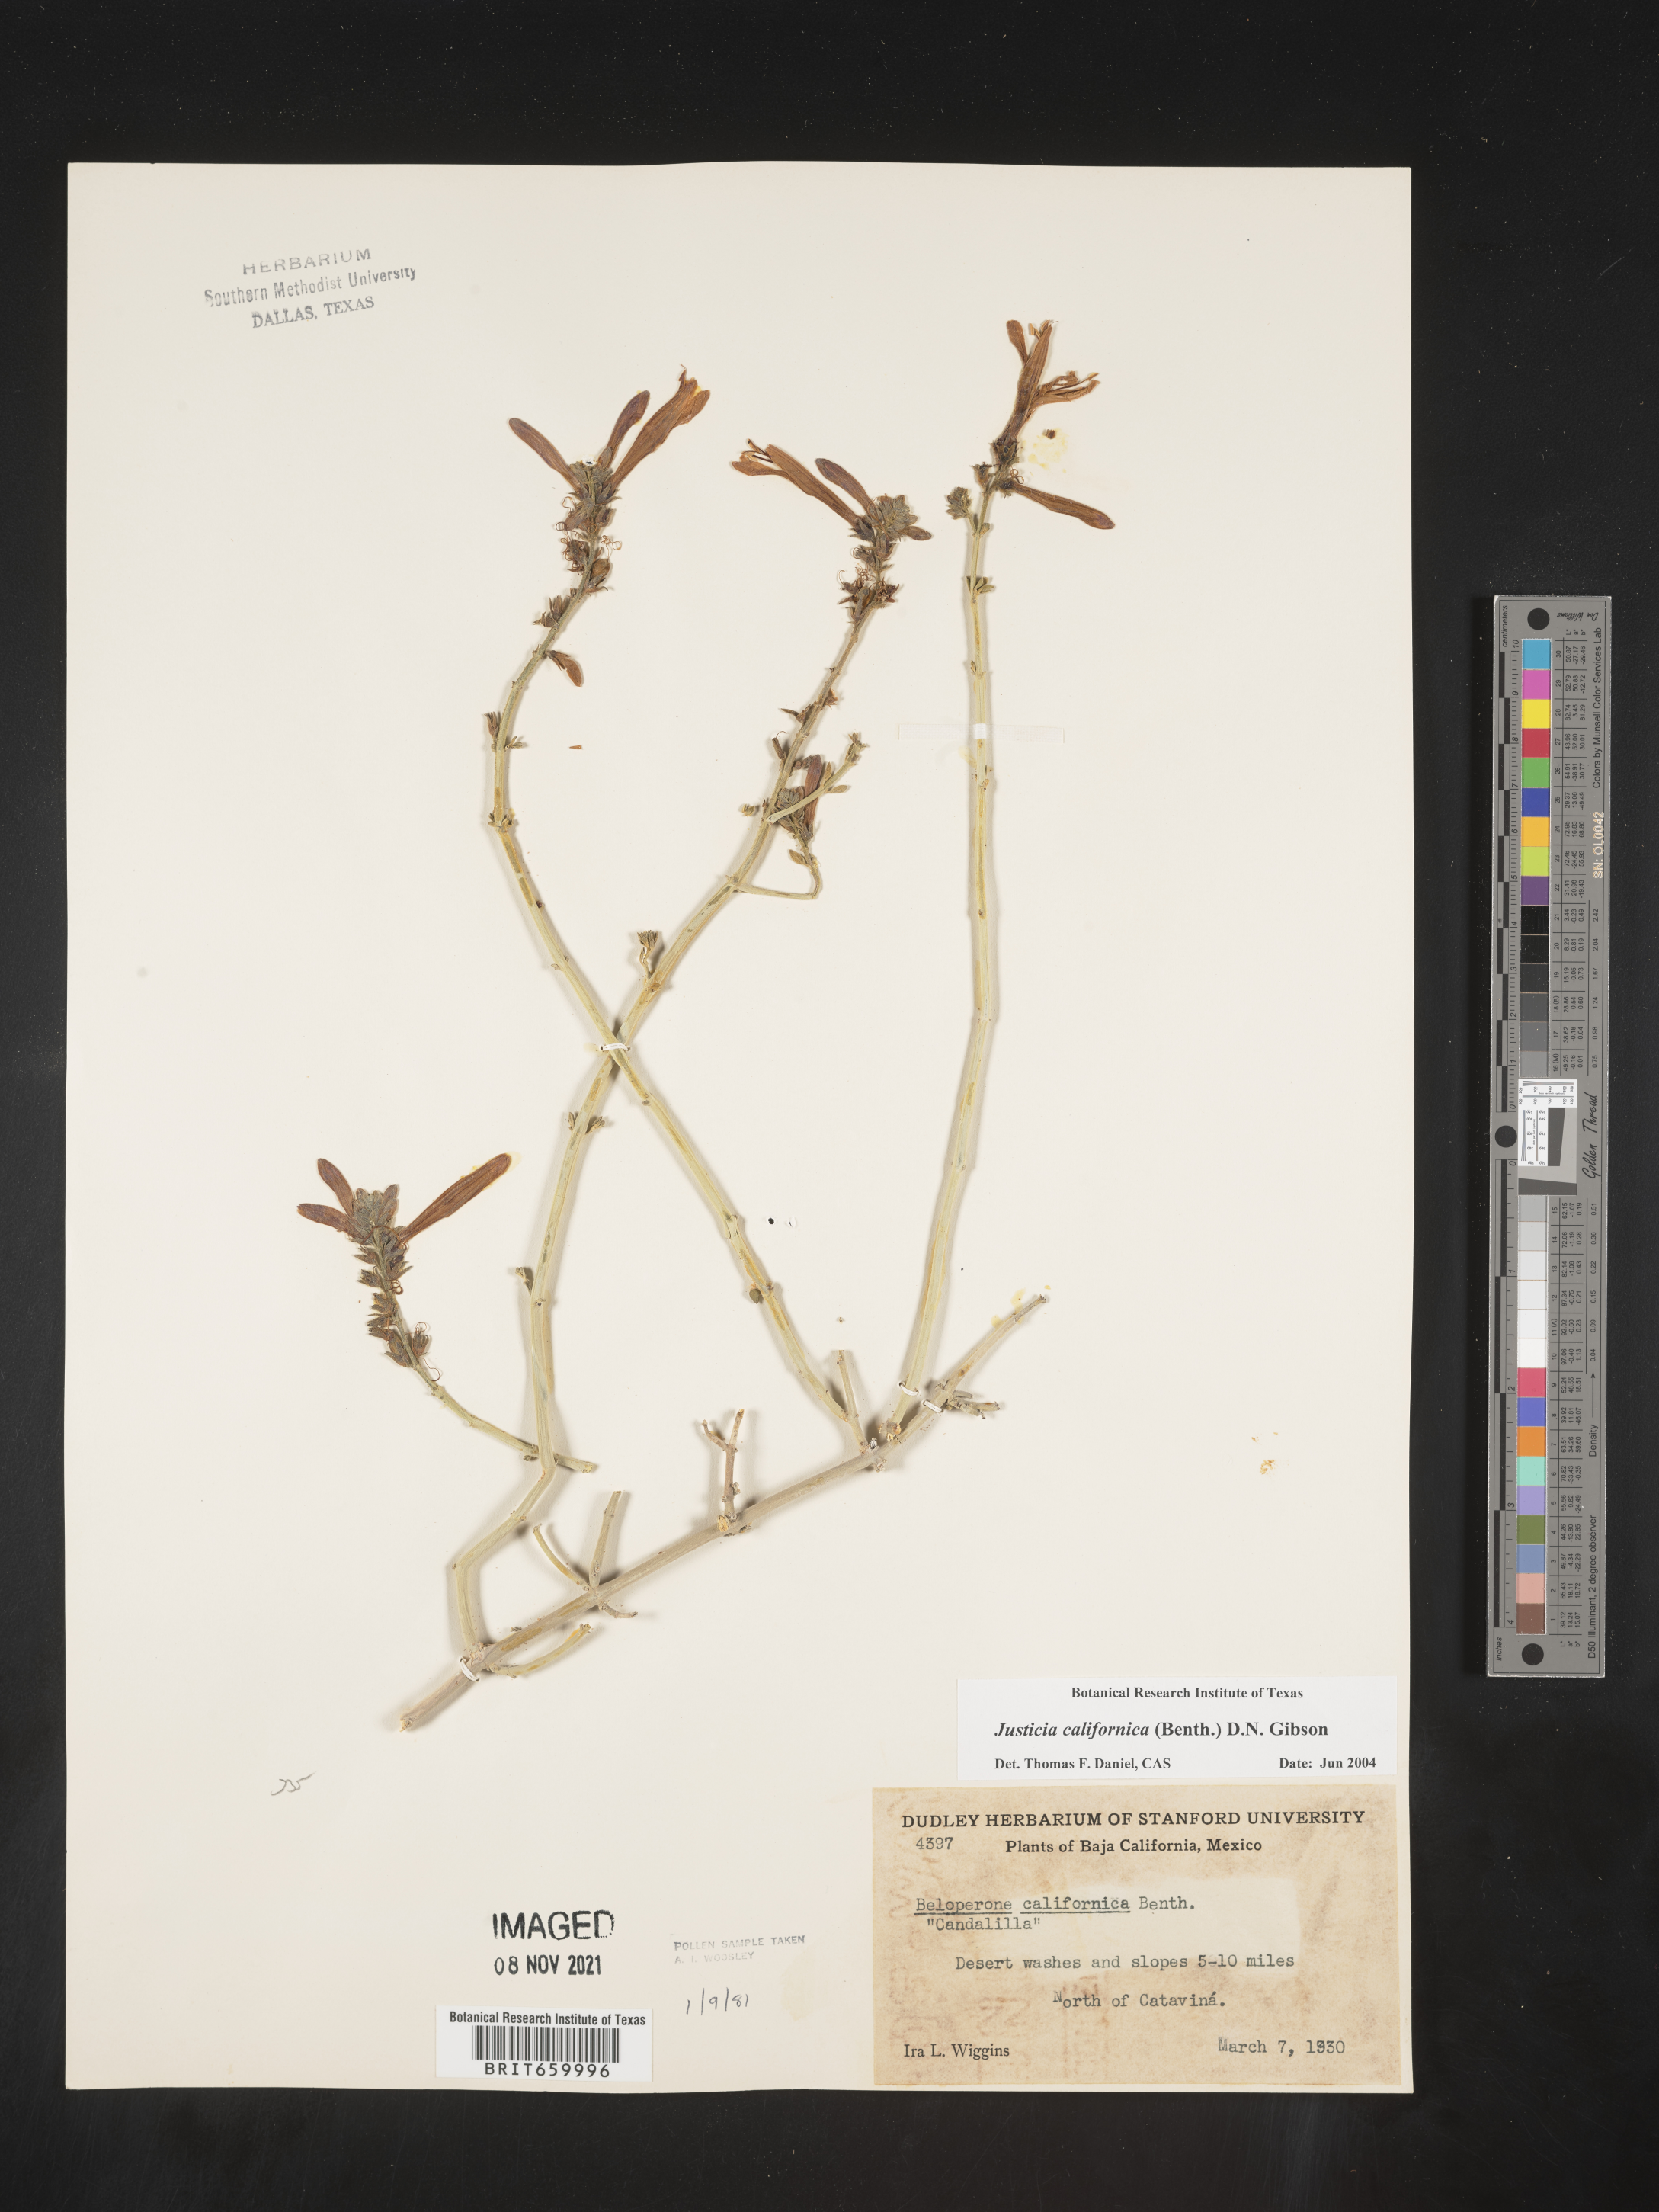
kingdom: Plantae
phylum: Tracheophyta
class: Magnoliopsida
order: Lamiales
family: Acanthaceae
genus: Justicia
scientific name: Justicia californica
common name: Chuparosa-honeysuckle
